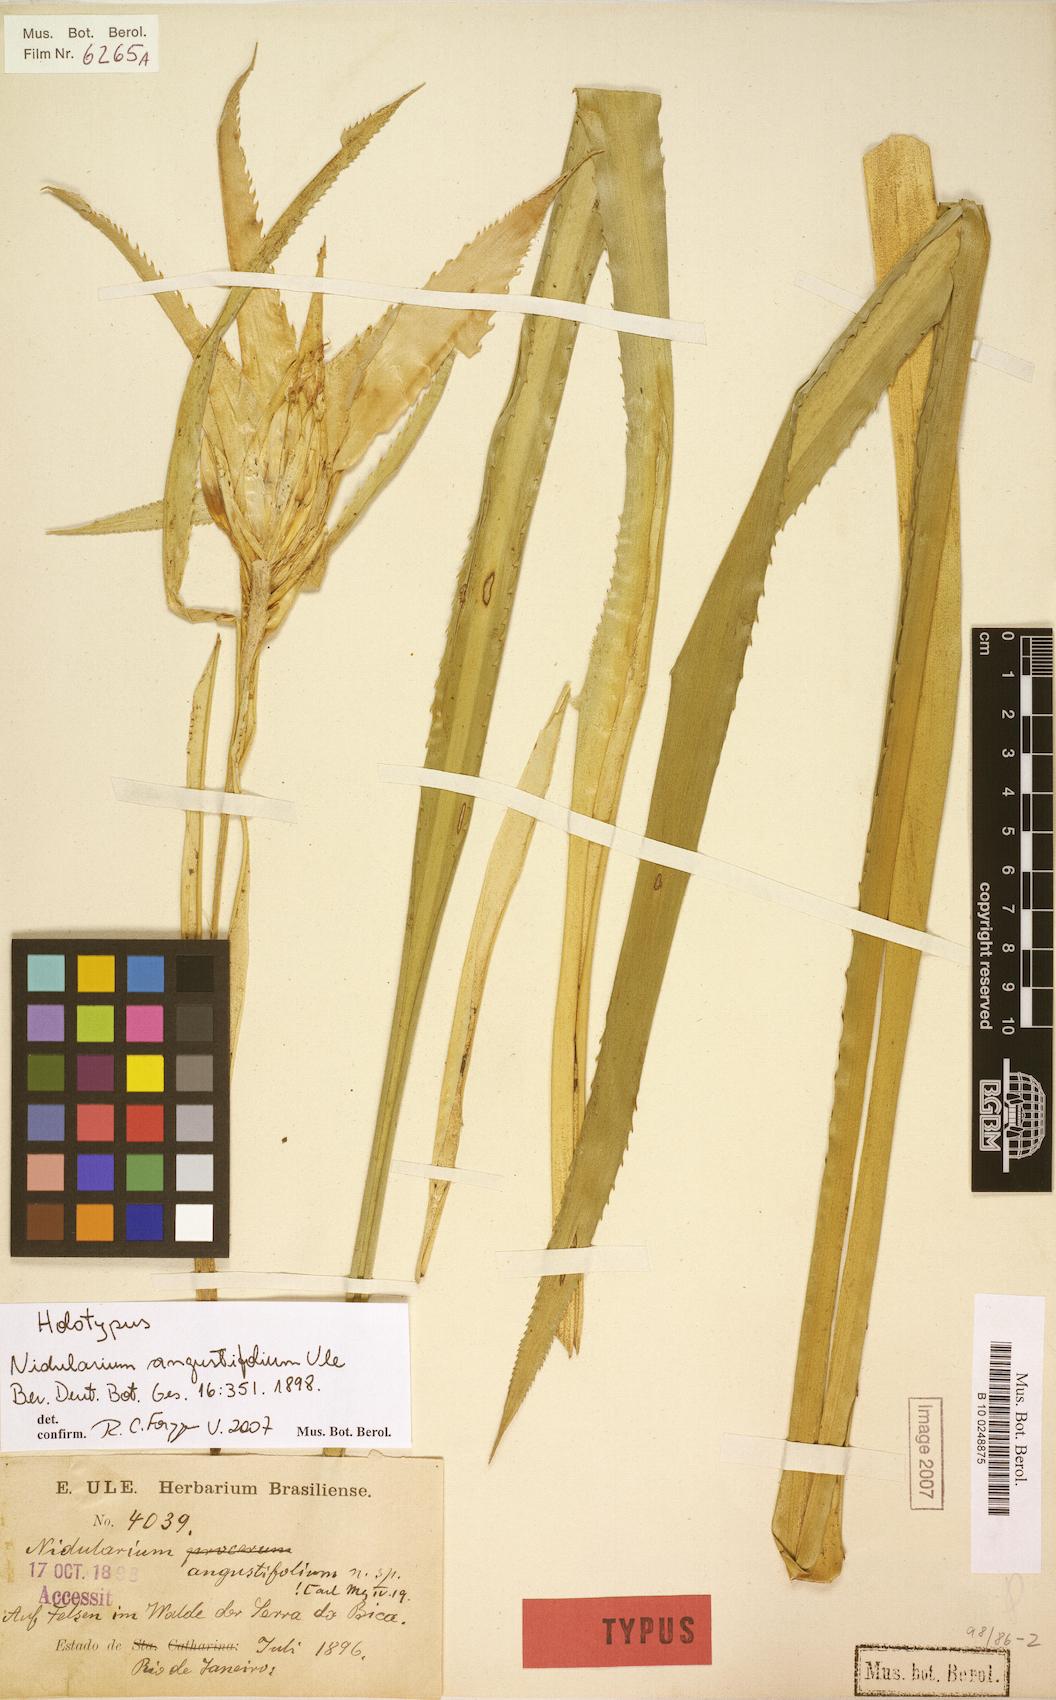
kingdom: Plantae
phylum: Tracheophyta
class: Liliopsida
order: Poales
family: Bromeliaceae
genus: Nidularium
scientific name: Nidularium angustifolium
